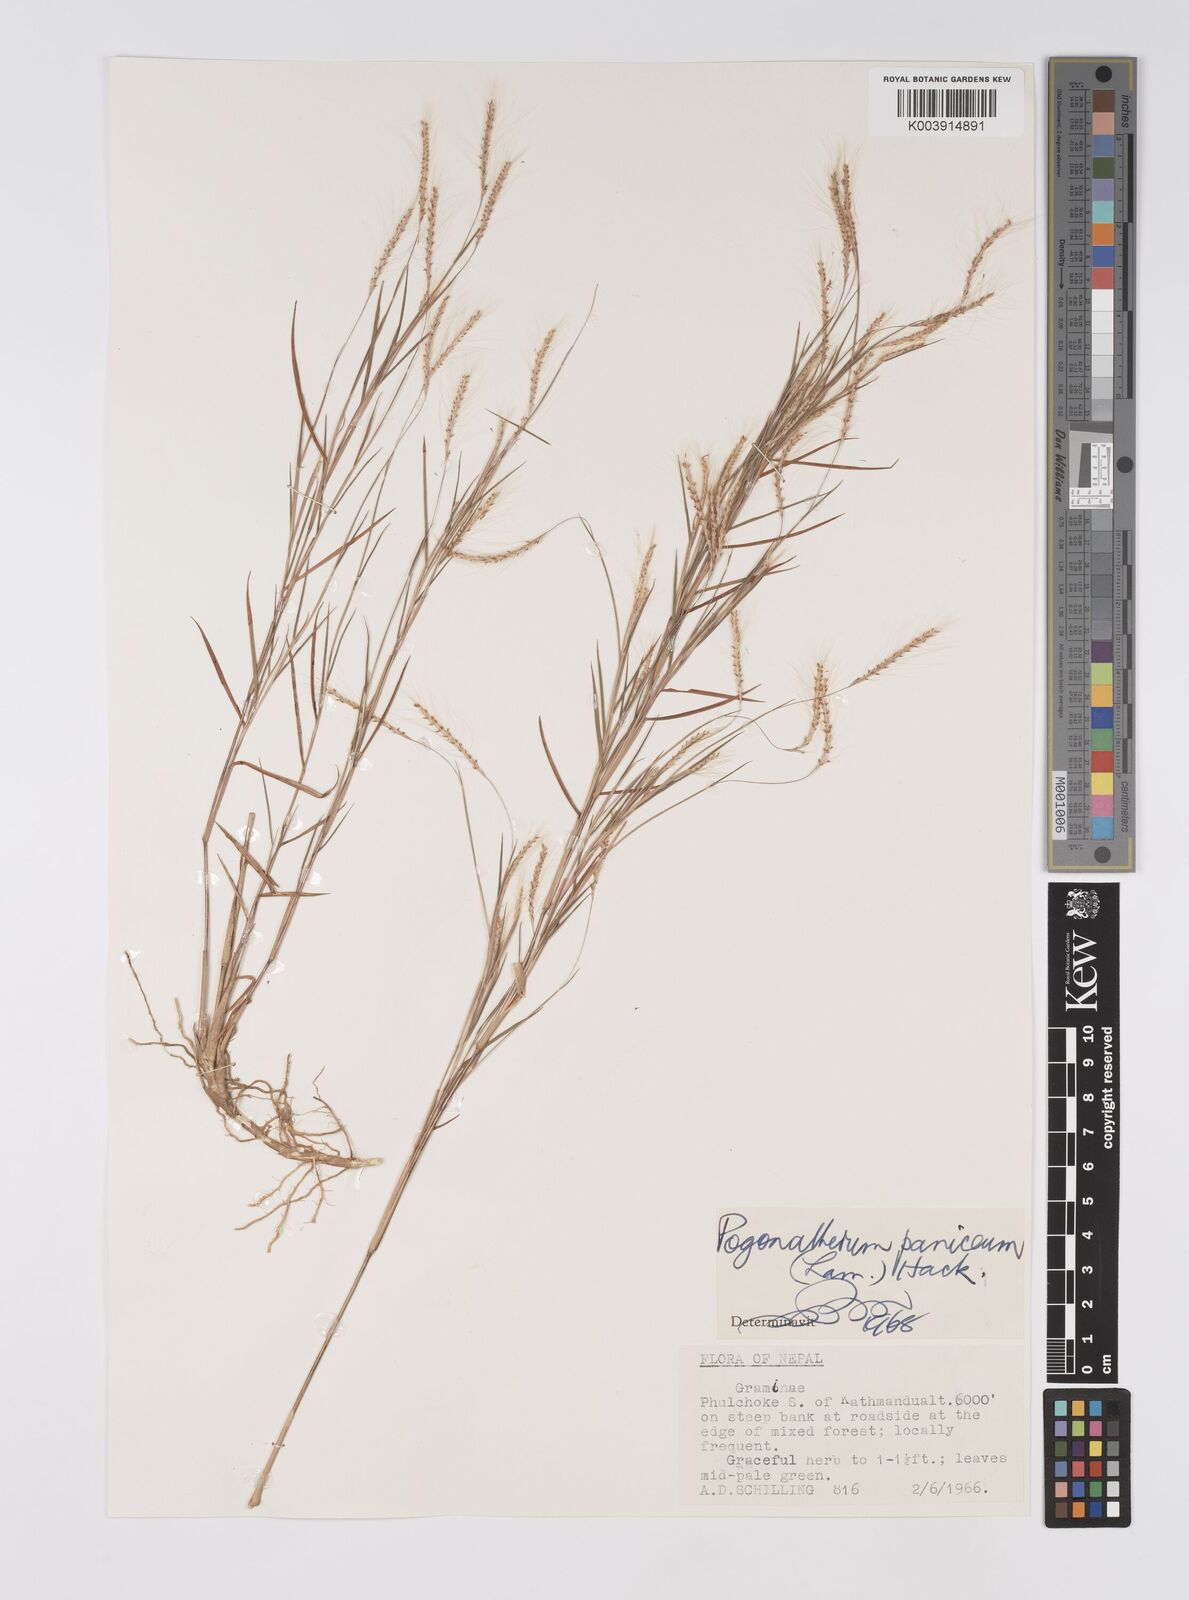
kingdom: Plantae
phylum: Tracheophyta
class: Liliopsida
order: Poales
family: Poaceae
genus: Pogonatherum
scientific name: Pogonatherum paniceum
